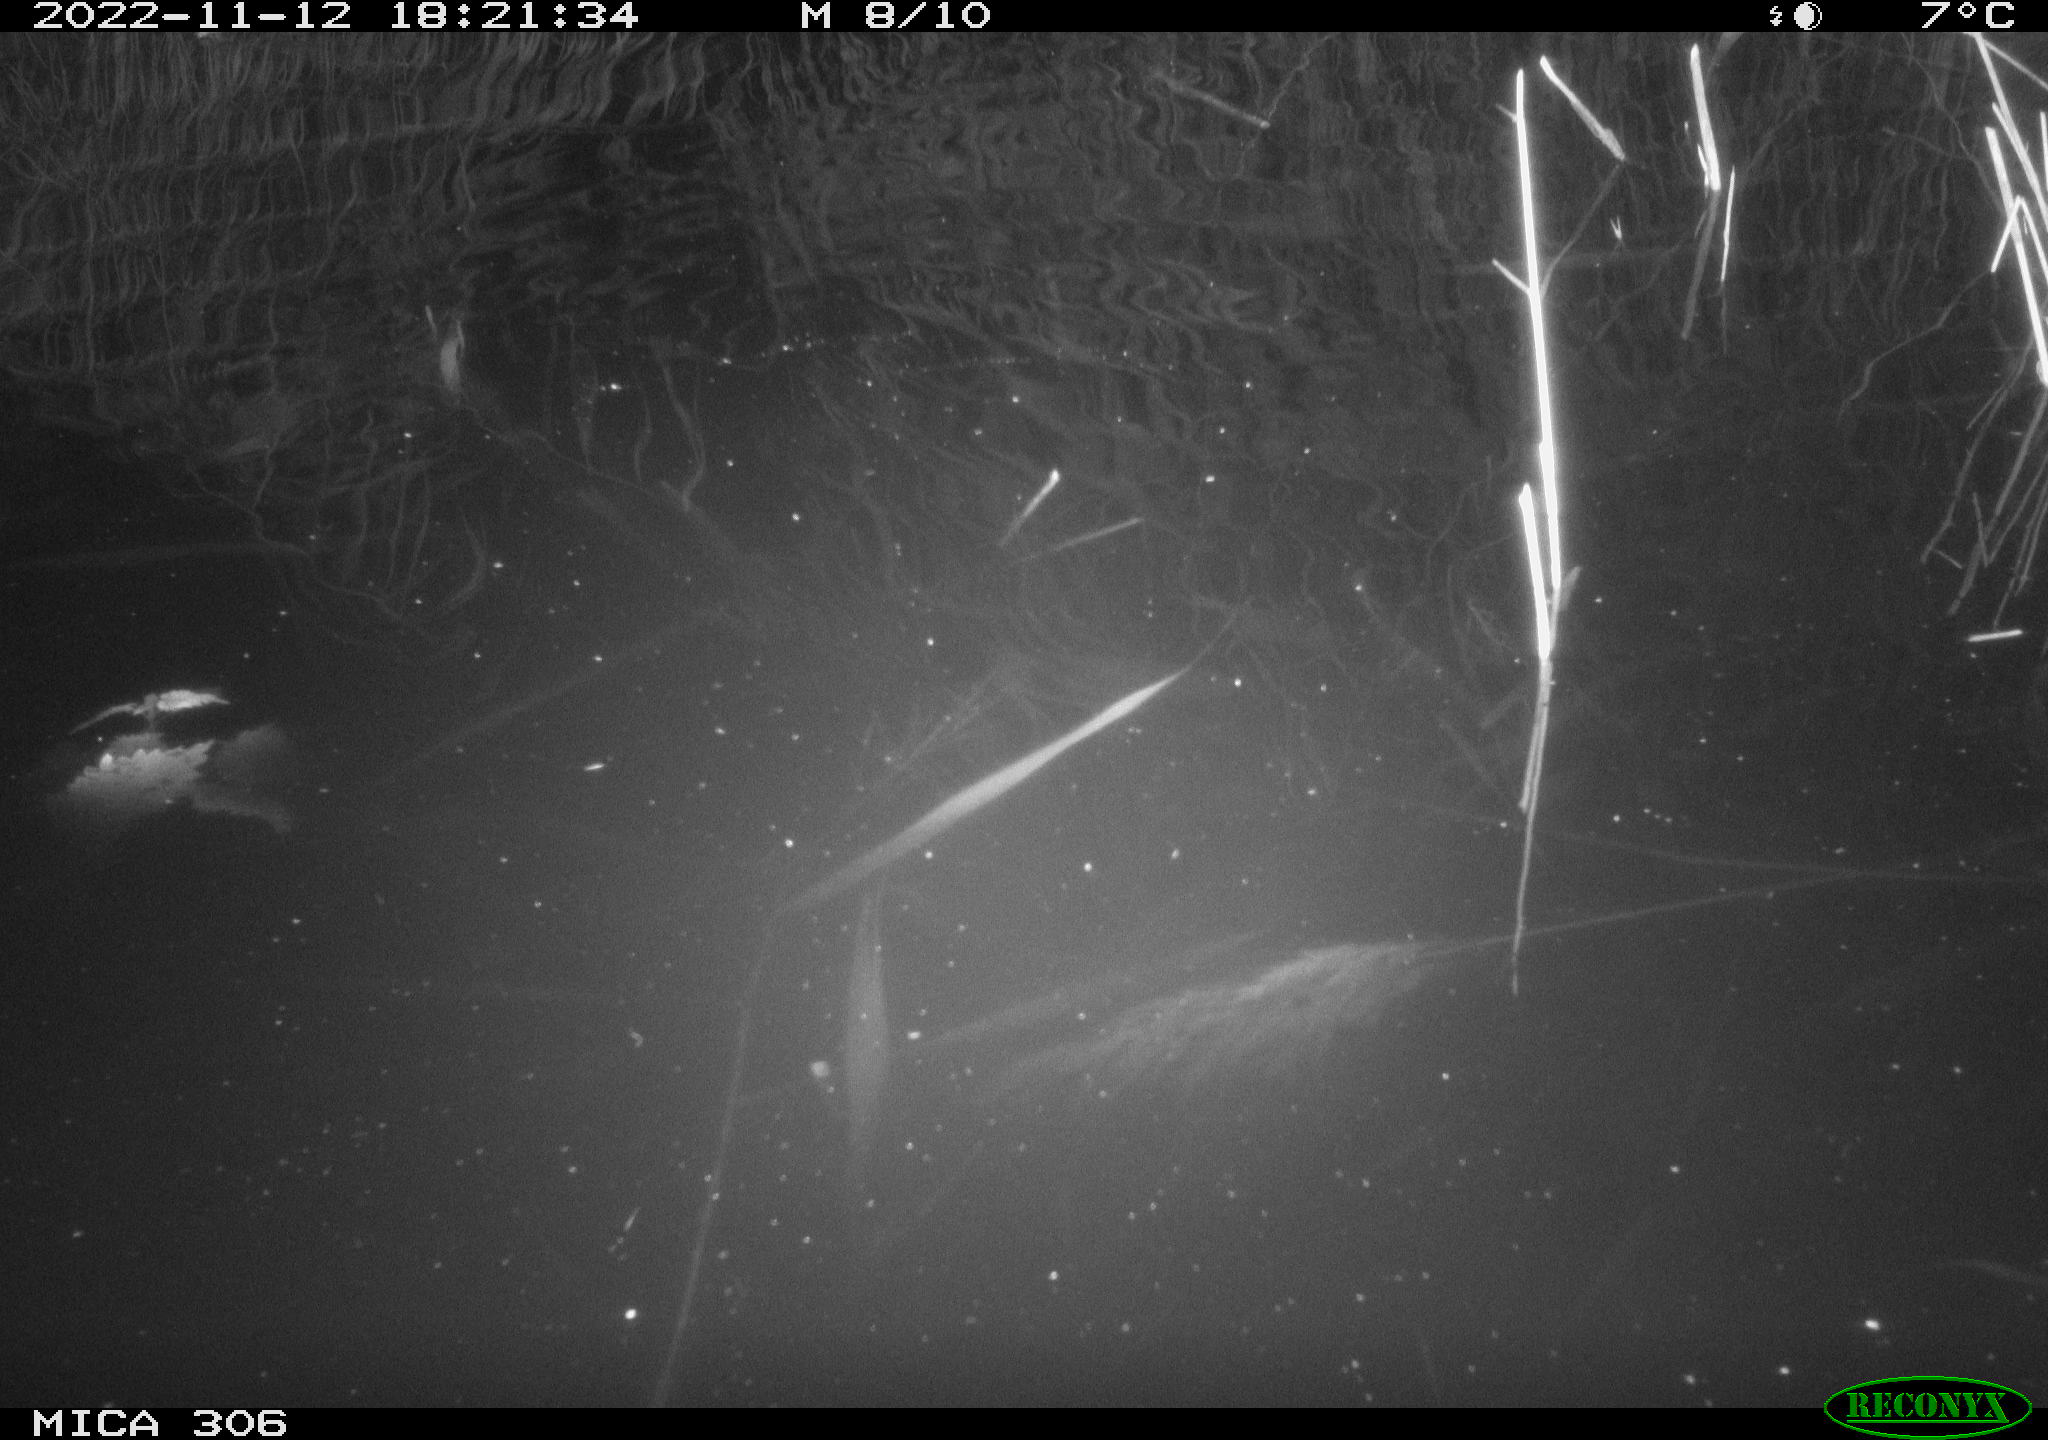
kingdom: Animalia
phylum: Chordata
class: Mammalia
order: Rodentia
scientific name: Rodentia
